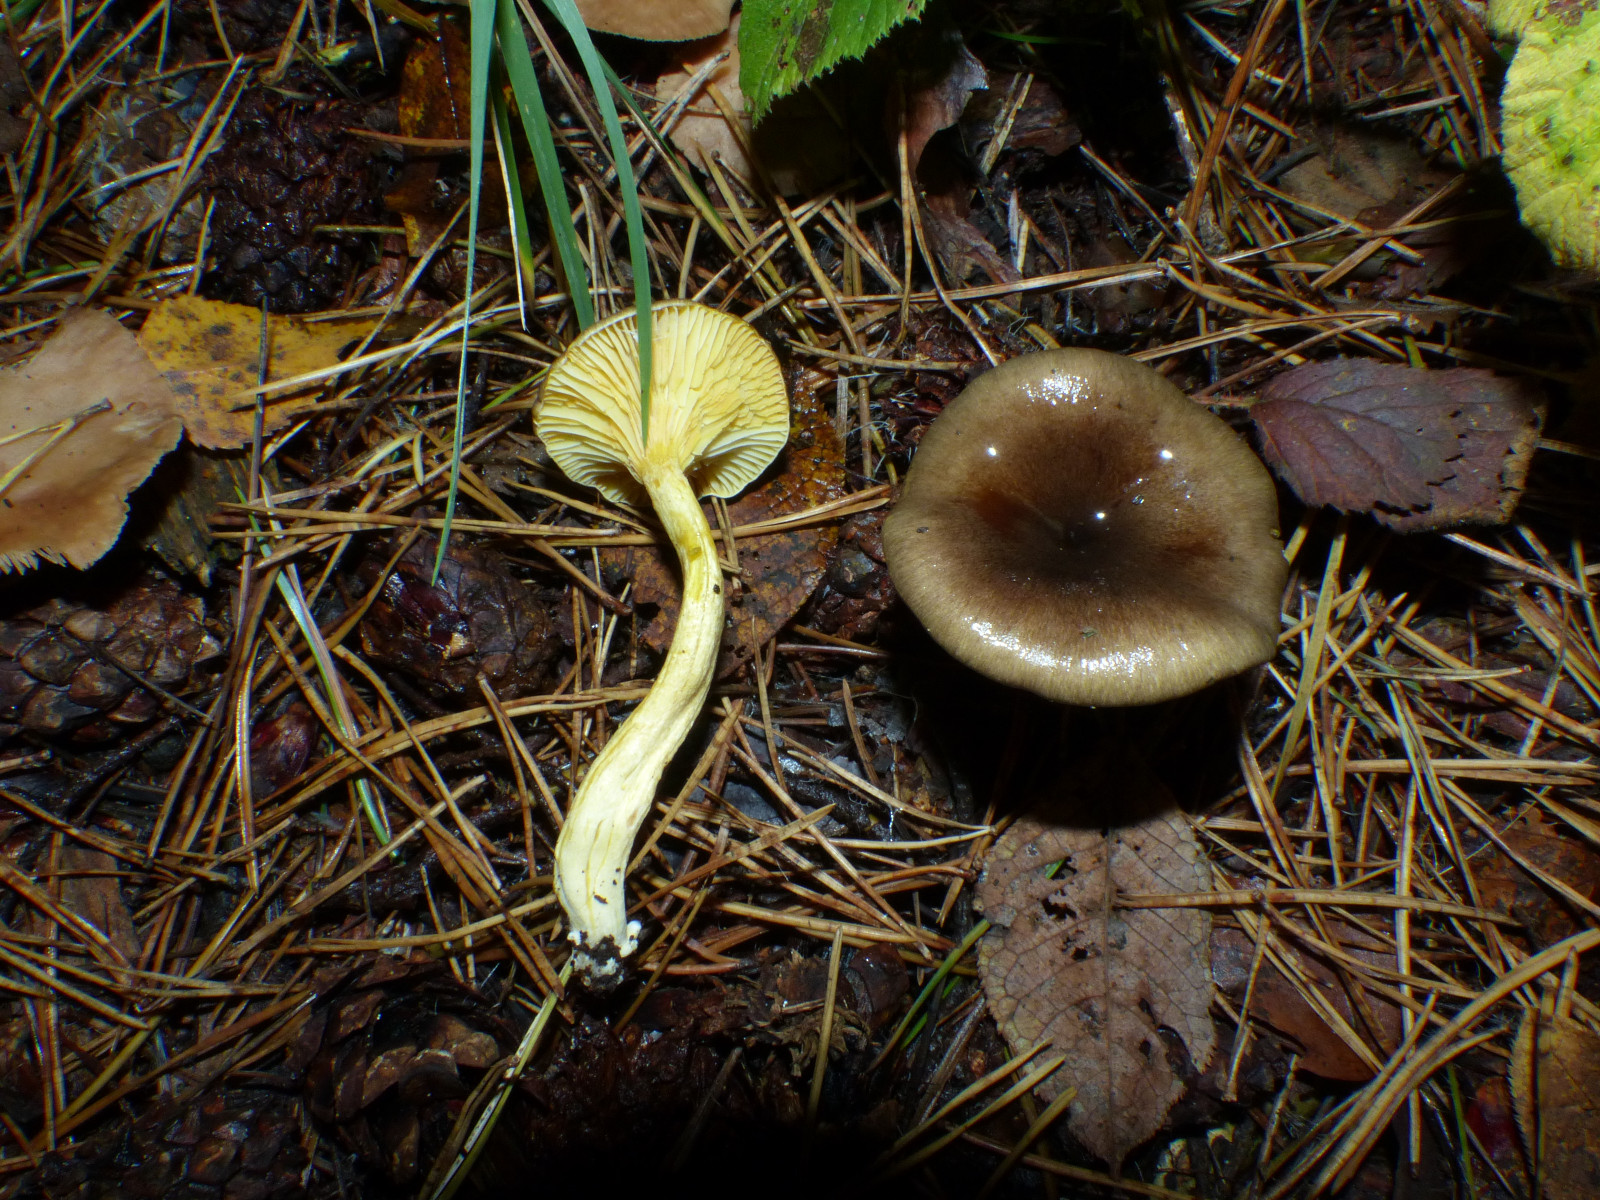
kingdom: Fungi
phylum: Basidiomycota
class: Agaricomycetes
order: Agaricales
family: Hygrophoraceae
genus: Hygrophorus
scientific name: Hygrophorus hypothejus
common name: frost-sneglehat
